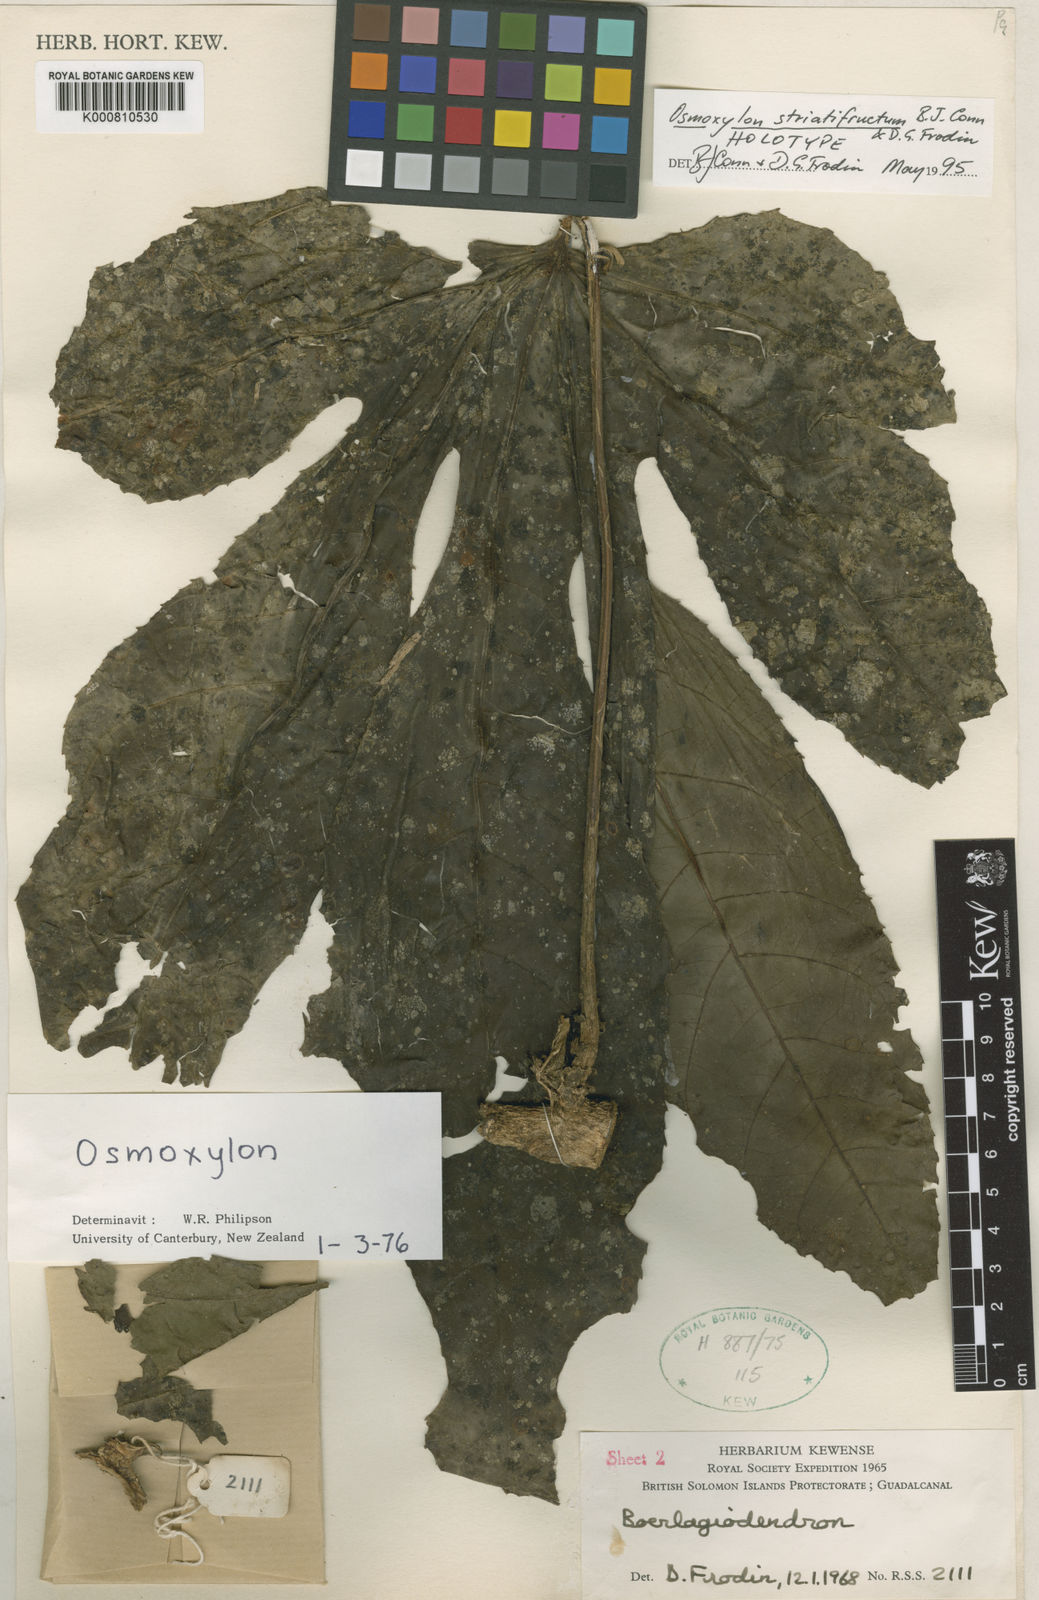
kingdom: Plantae
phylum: Tracheophyta
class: Magnoliopsida
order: Apiales
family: Araliaceae
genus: Osmoxylon
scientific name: Osmoxylon striatifructum
